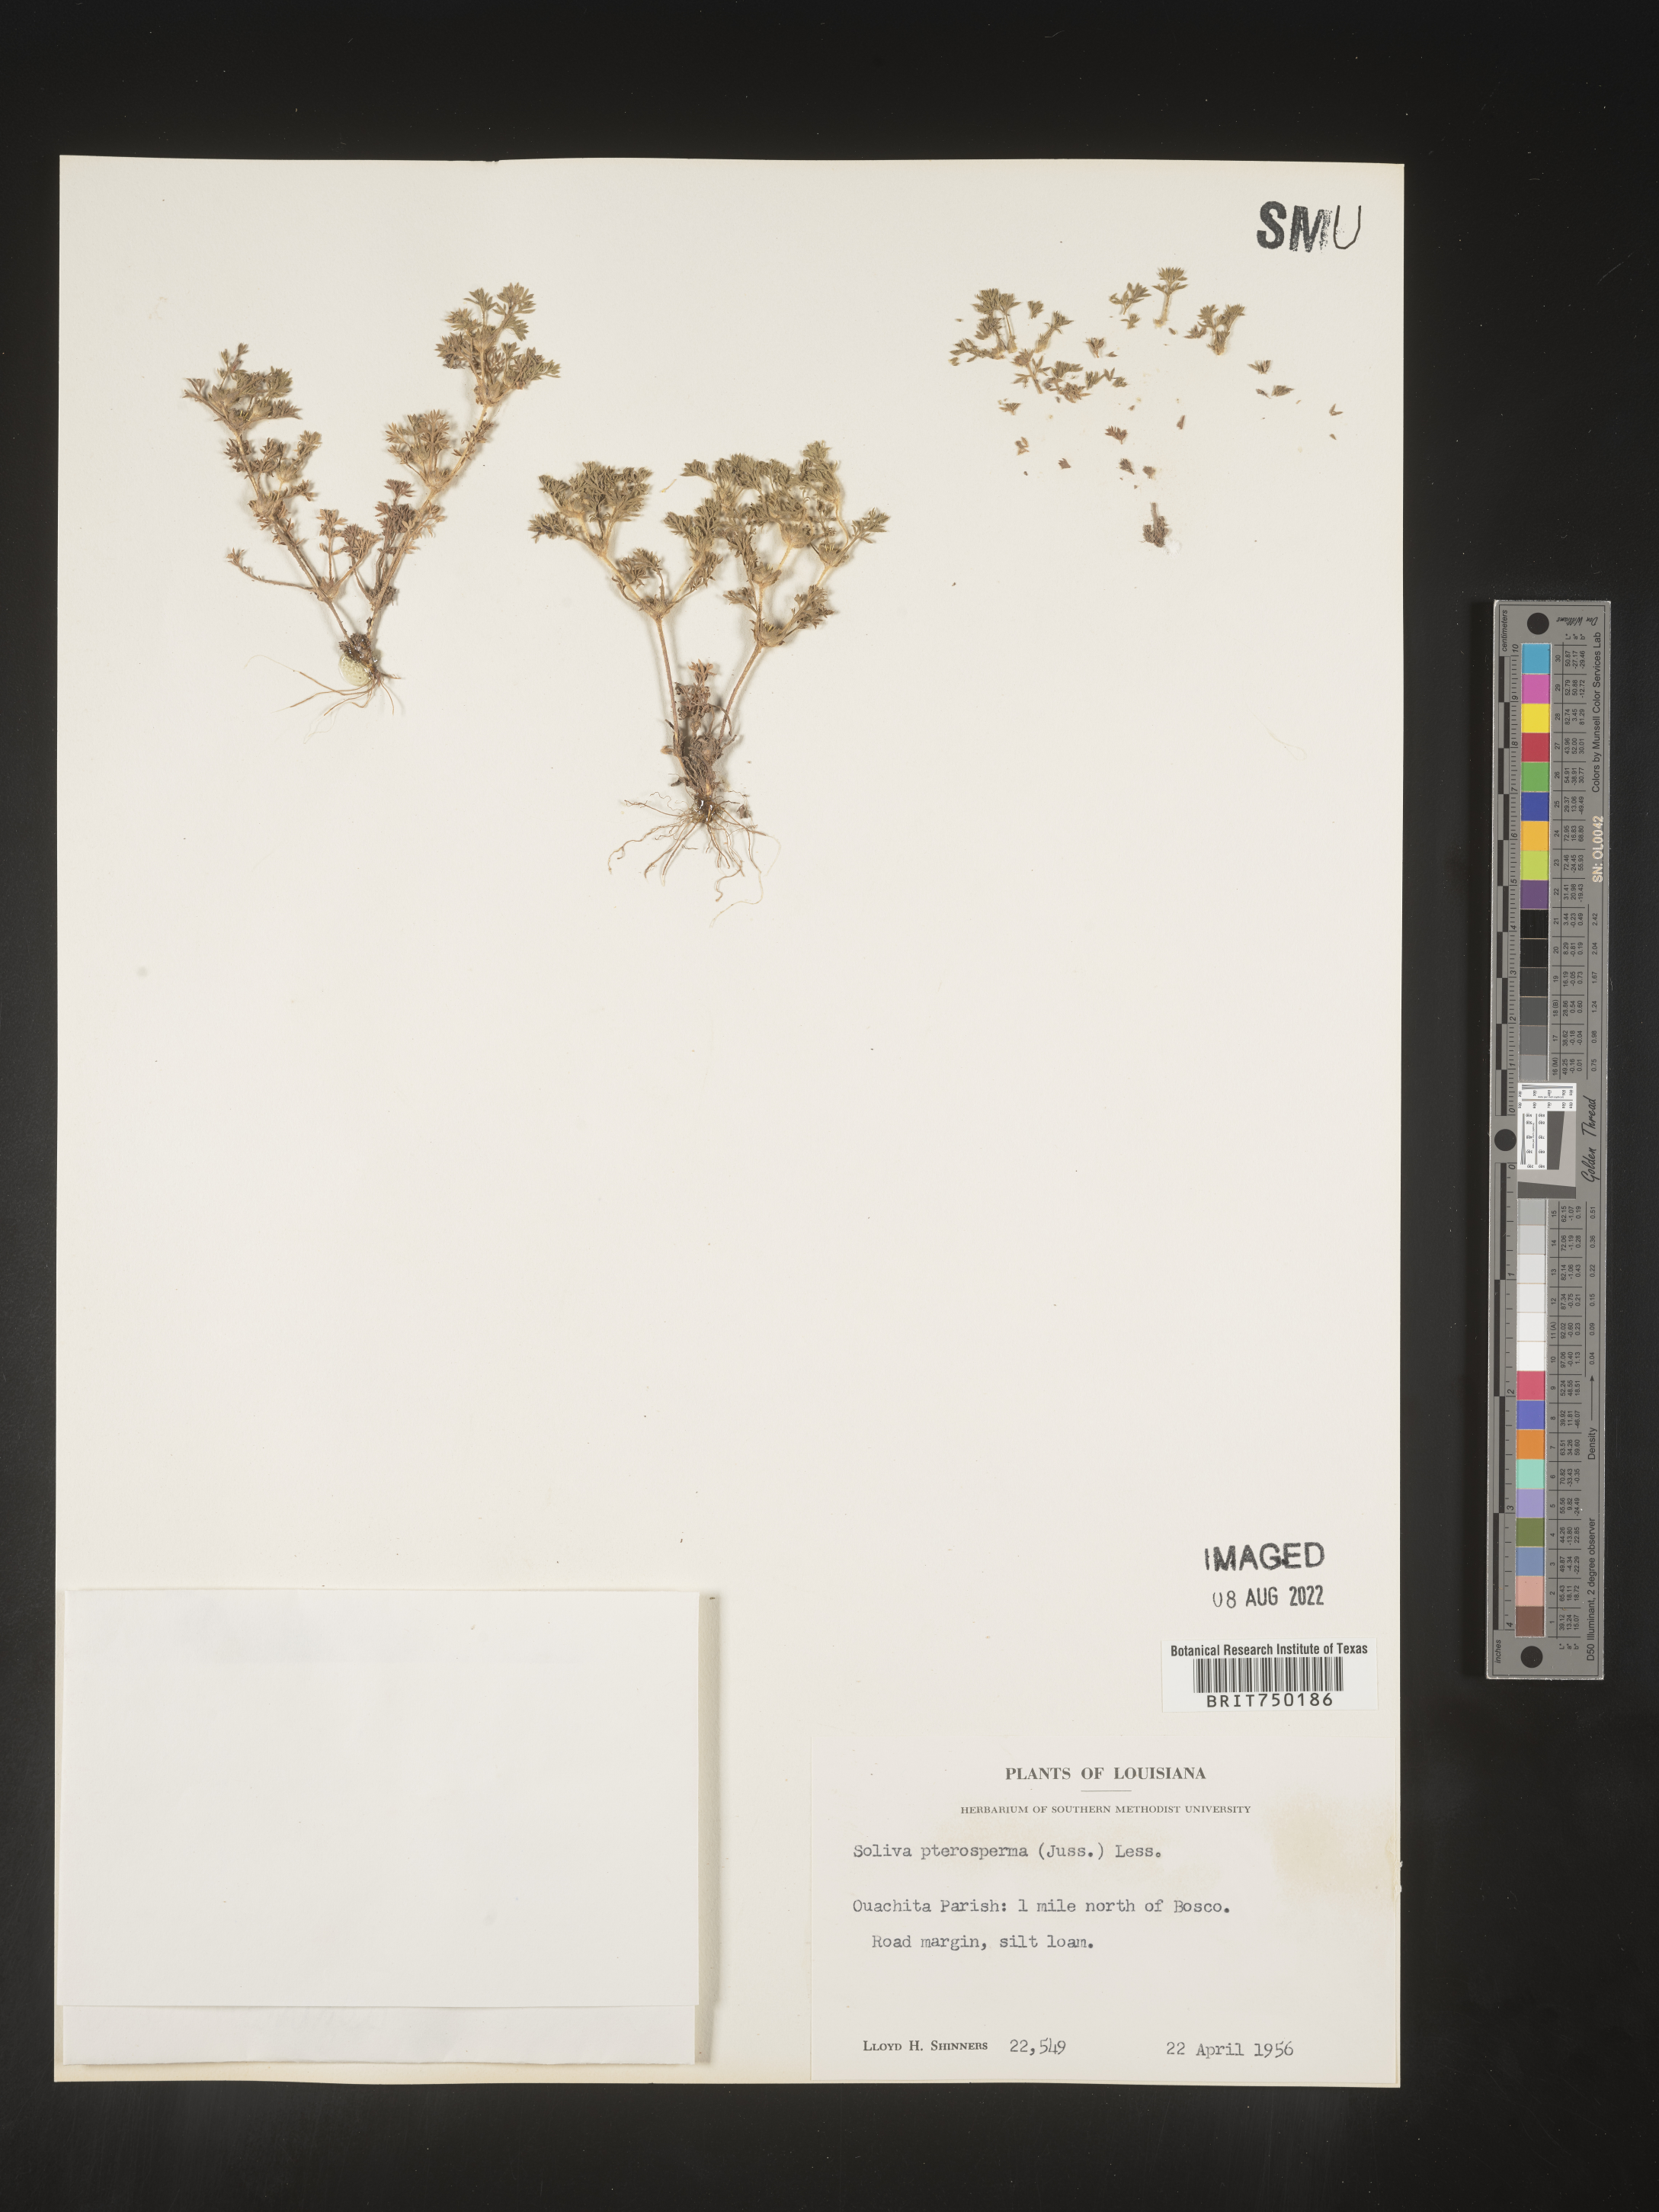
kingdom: Plantae
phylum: Tracheophyta
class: Magnoliopsida
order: Asterales
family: Asteraceae
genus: Soliva
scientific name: Soliva sessilis
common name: Field burrweed
